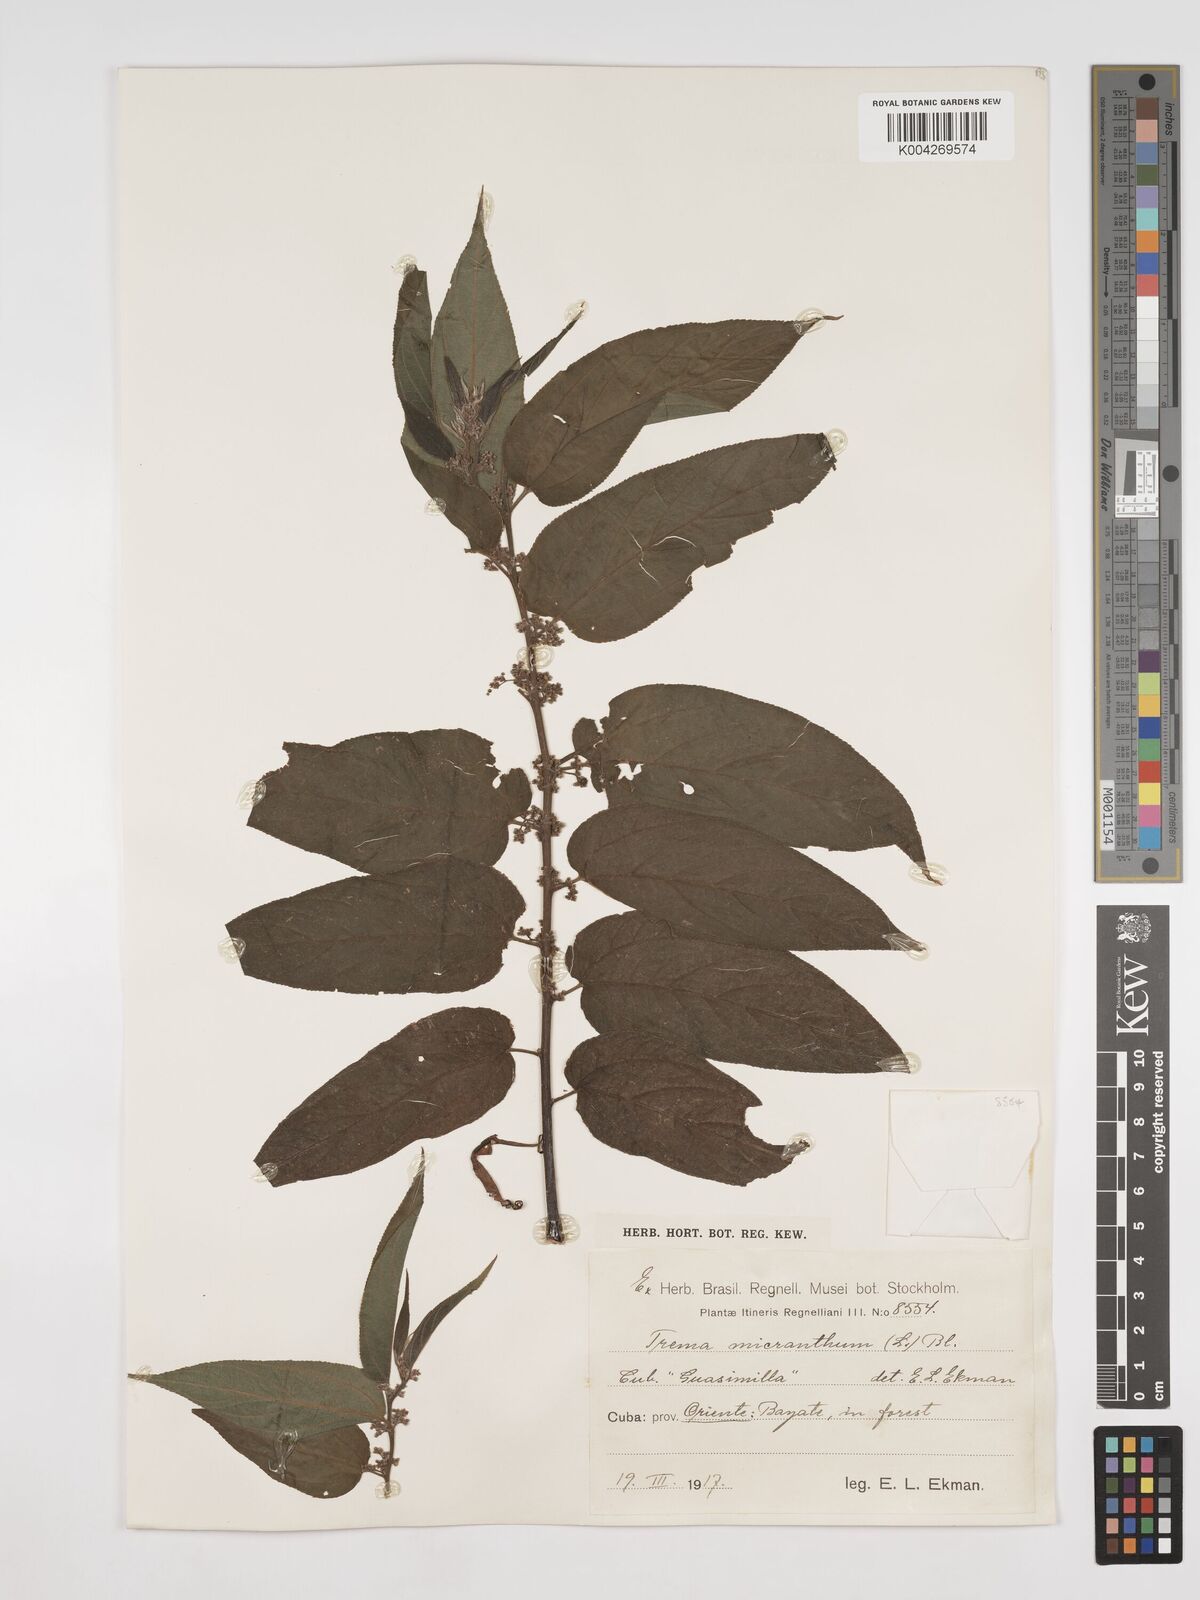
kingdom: Plantae
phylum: Tracheophyta
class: Magnoliopsida
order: Rosales
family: Cannabaceae
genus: Trema
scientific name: Trema micranthum
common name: Jamaican nettletree
